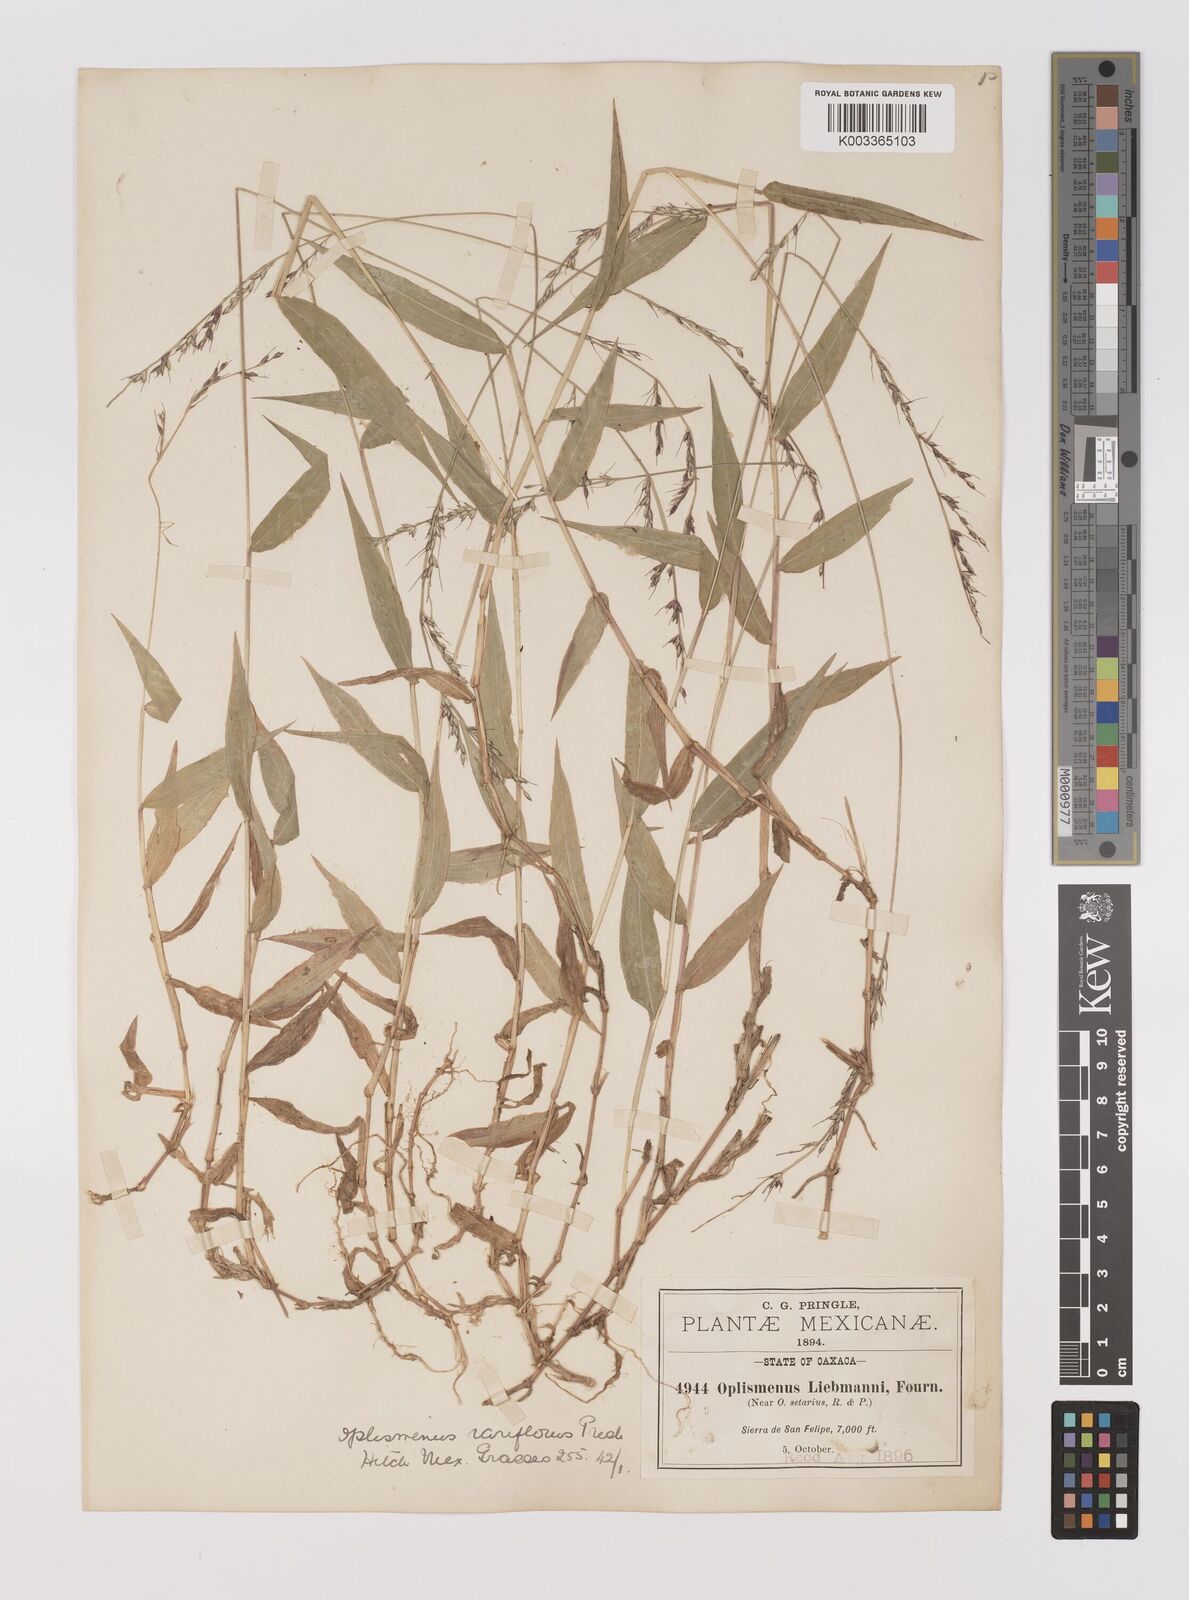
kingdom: Plantae
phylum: Tracheophyta
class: Liliopsida
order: Poales
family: Poaceae
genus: Oplismenus
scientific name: Oplismenus compositus
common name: Running mountain grass
